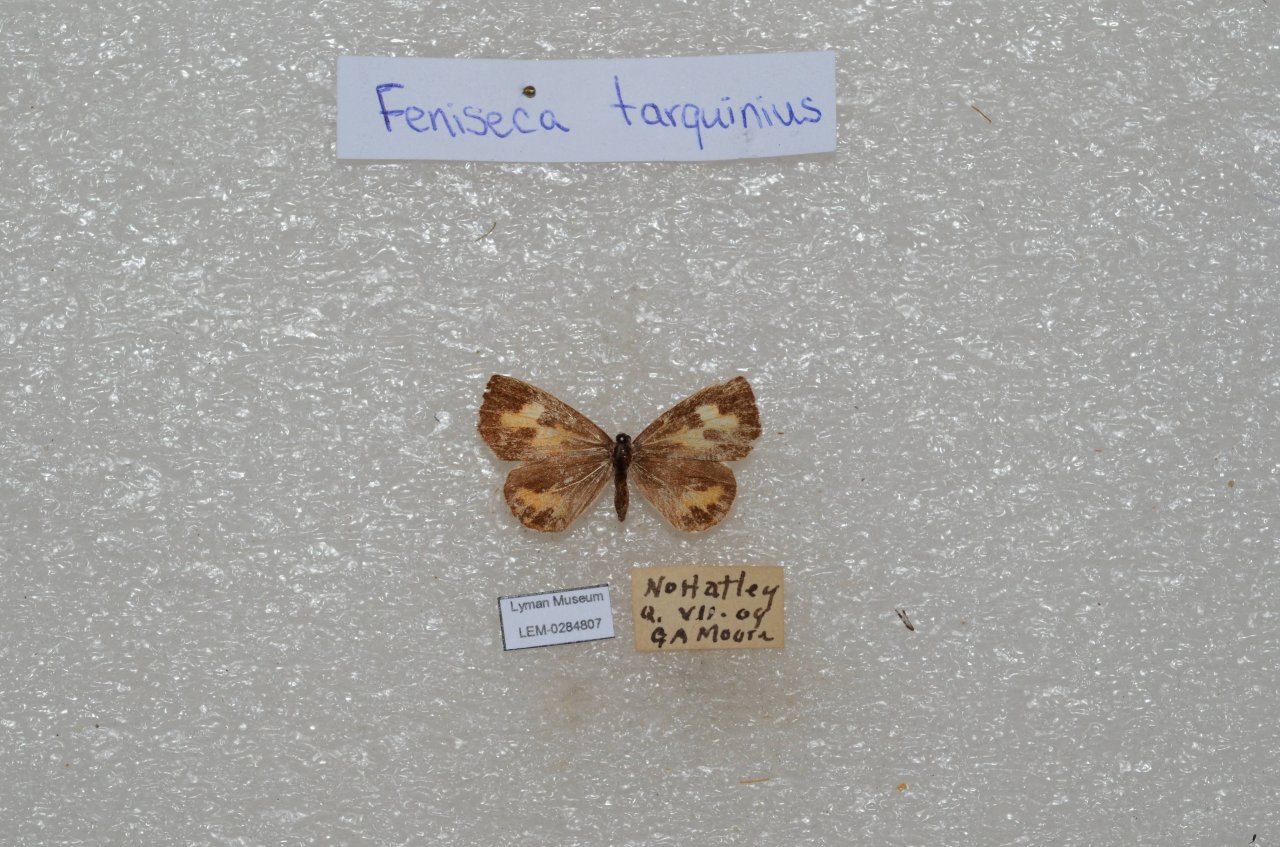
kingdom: Animalia
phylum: Arthropoda
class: Insecta
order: Lepidoptera
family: Lycaenidae
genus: Feniseca
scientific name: Feniseca tarquinius
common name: Harvester
